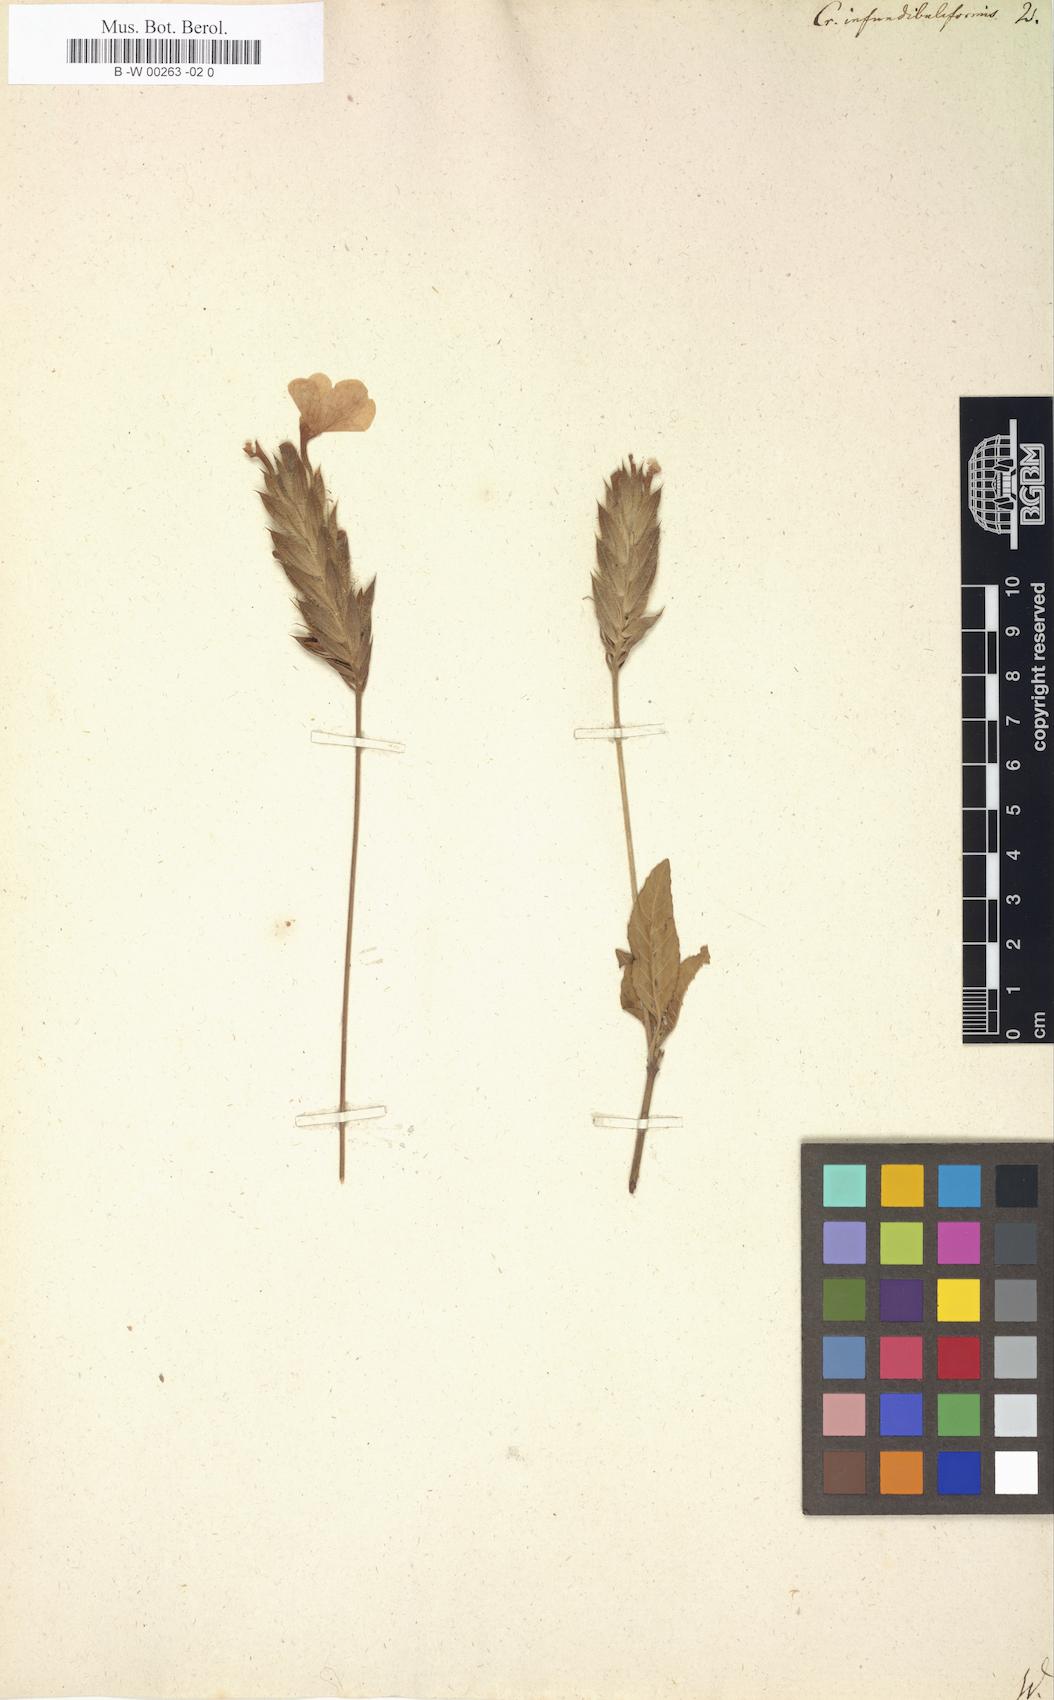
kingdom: Plantae
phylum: Tracheophyta
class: Magnoliopsida
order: Lamiales
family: Acanthaceae
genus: Crossandra
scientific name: Crossandra infundibuliformis
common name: Firecracker-flower
